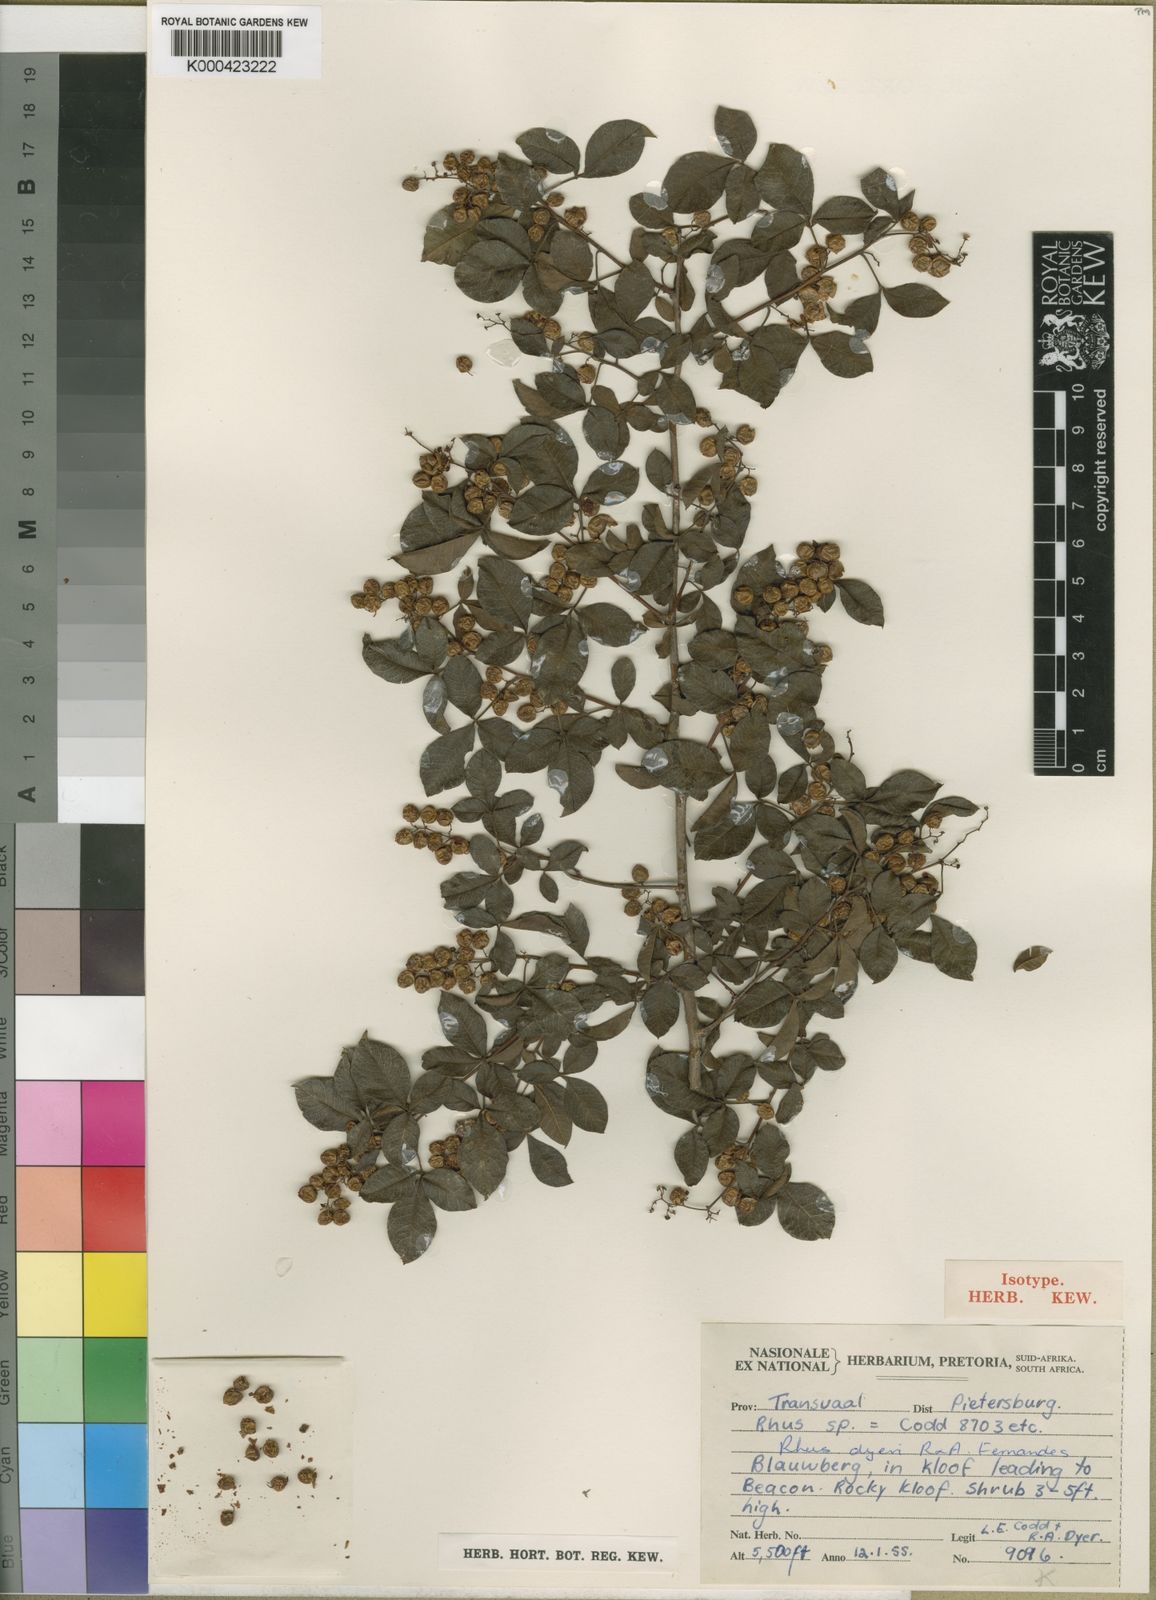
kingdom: Plantae
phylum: Tracheophyta
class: Magnoliopsida
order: Sapindales
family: Anacardiaceae
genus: Searsia
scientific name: Searsia rigida
